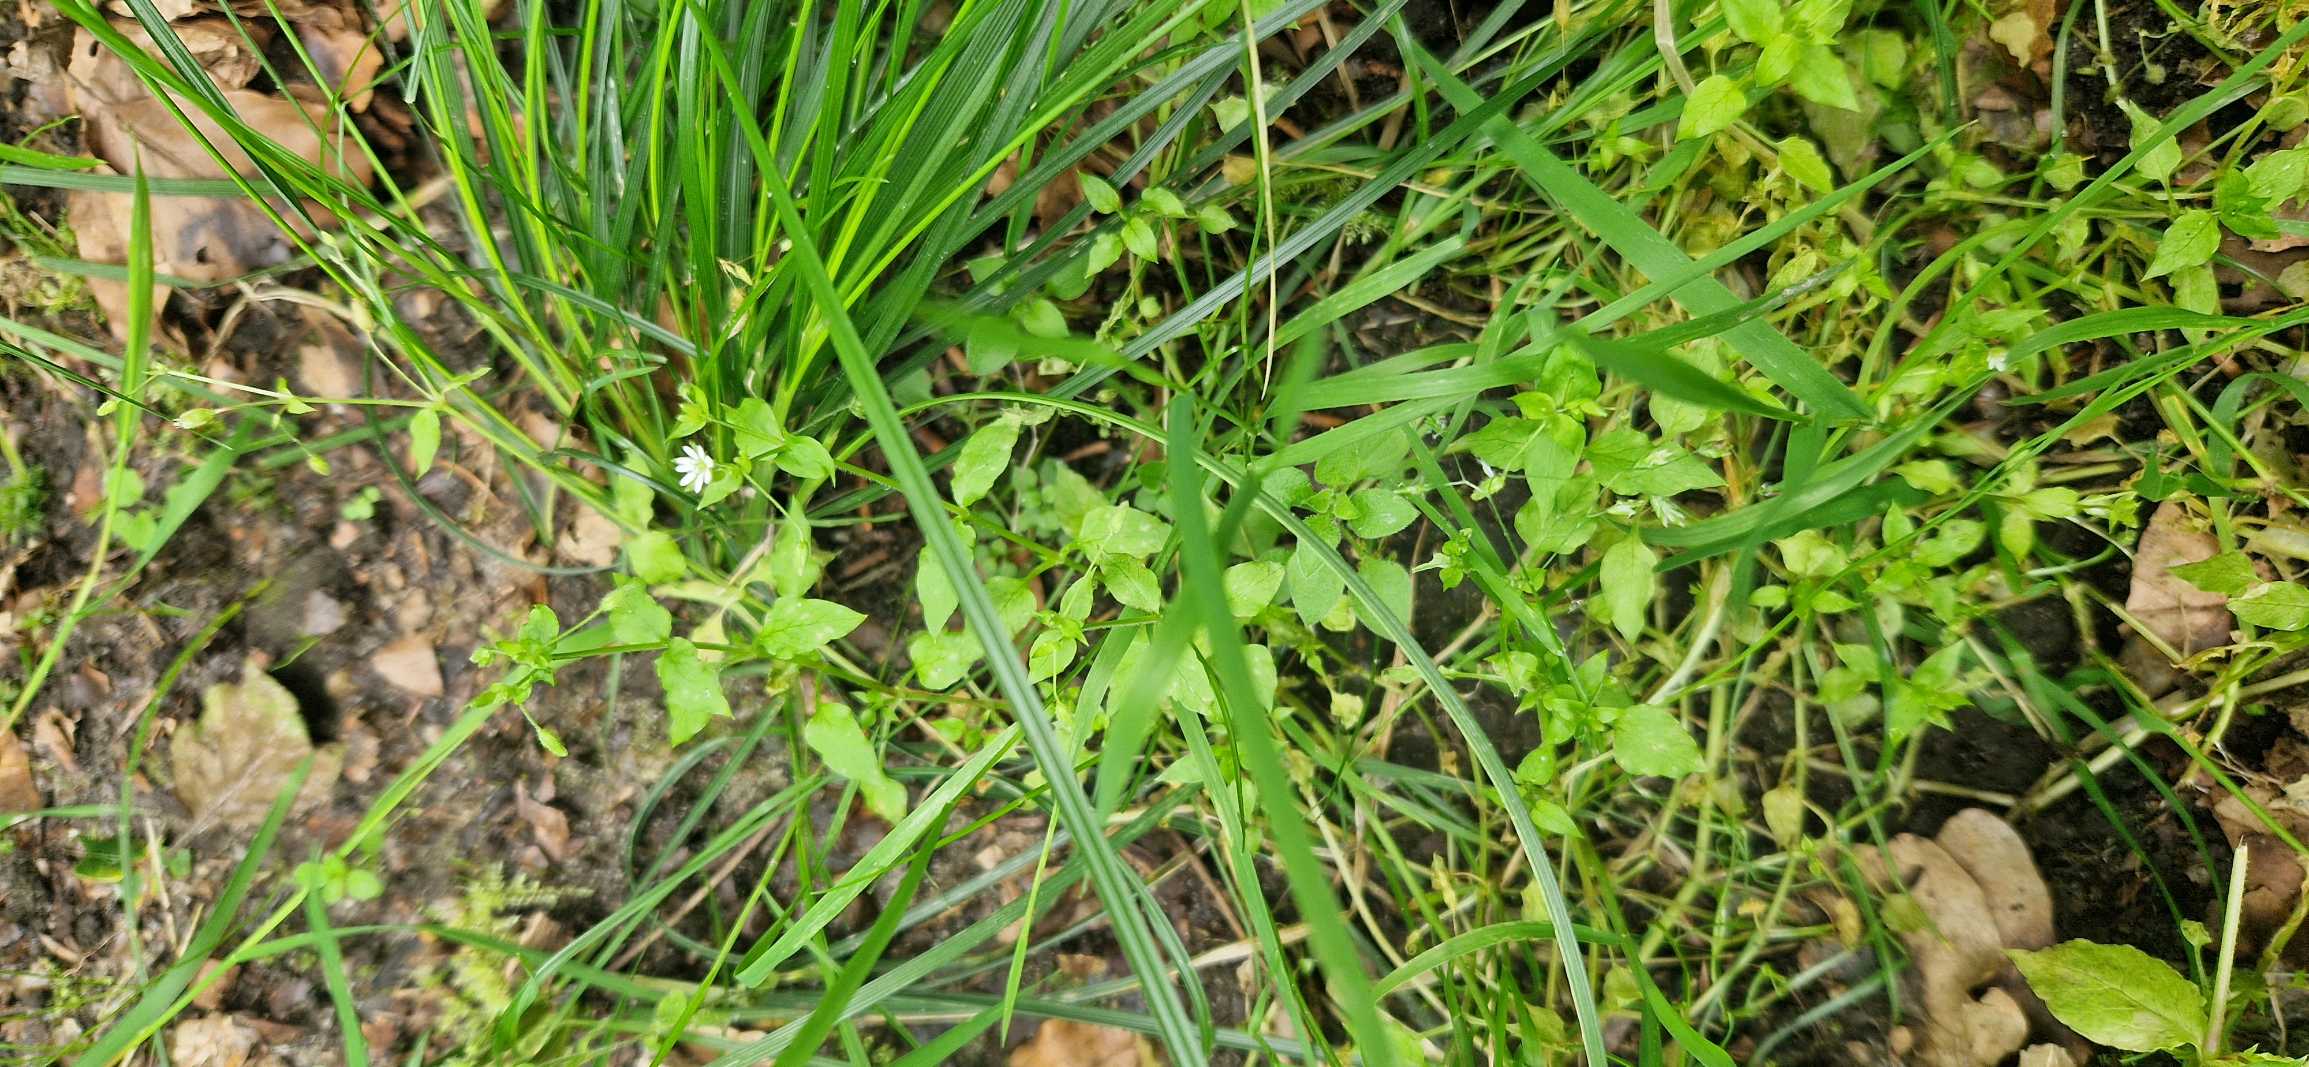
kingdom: Plantae
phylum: Tracheophyta
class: Magnoliopsida
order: Caryophyllales
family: Caryophyllaceae
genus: Stellaria
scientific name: Stellaria neglecta
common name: Skov-fuglegræs
